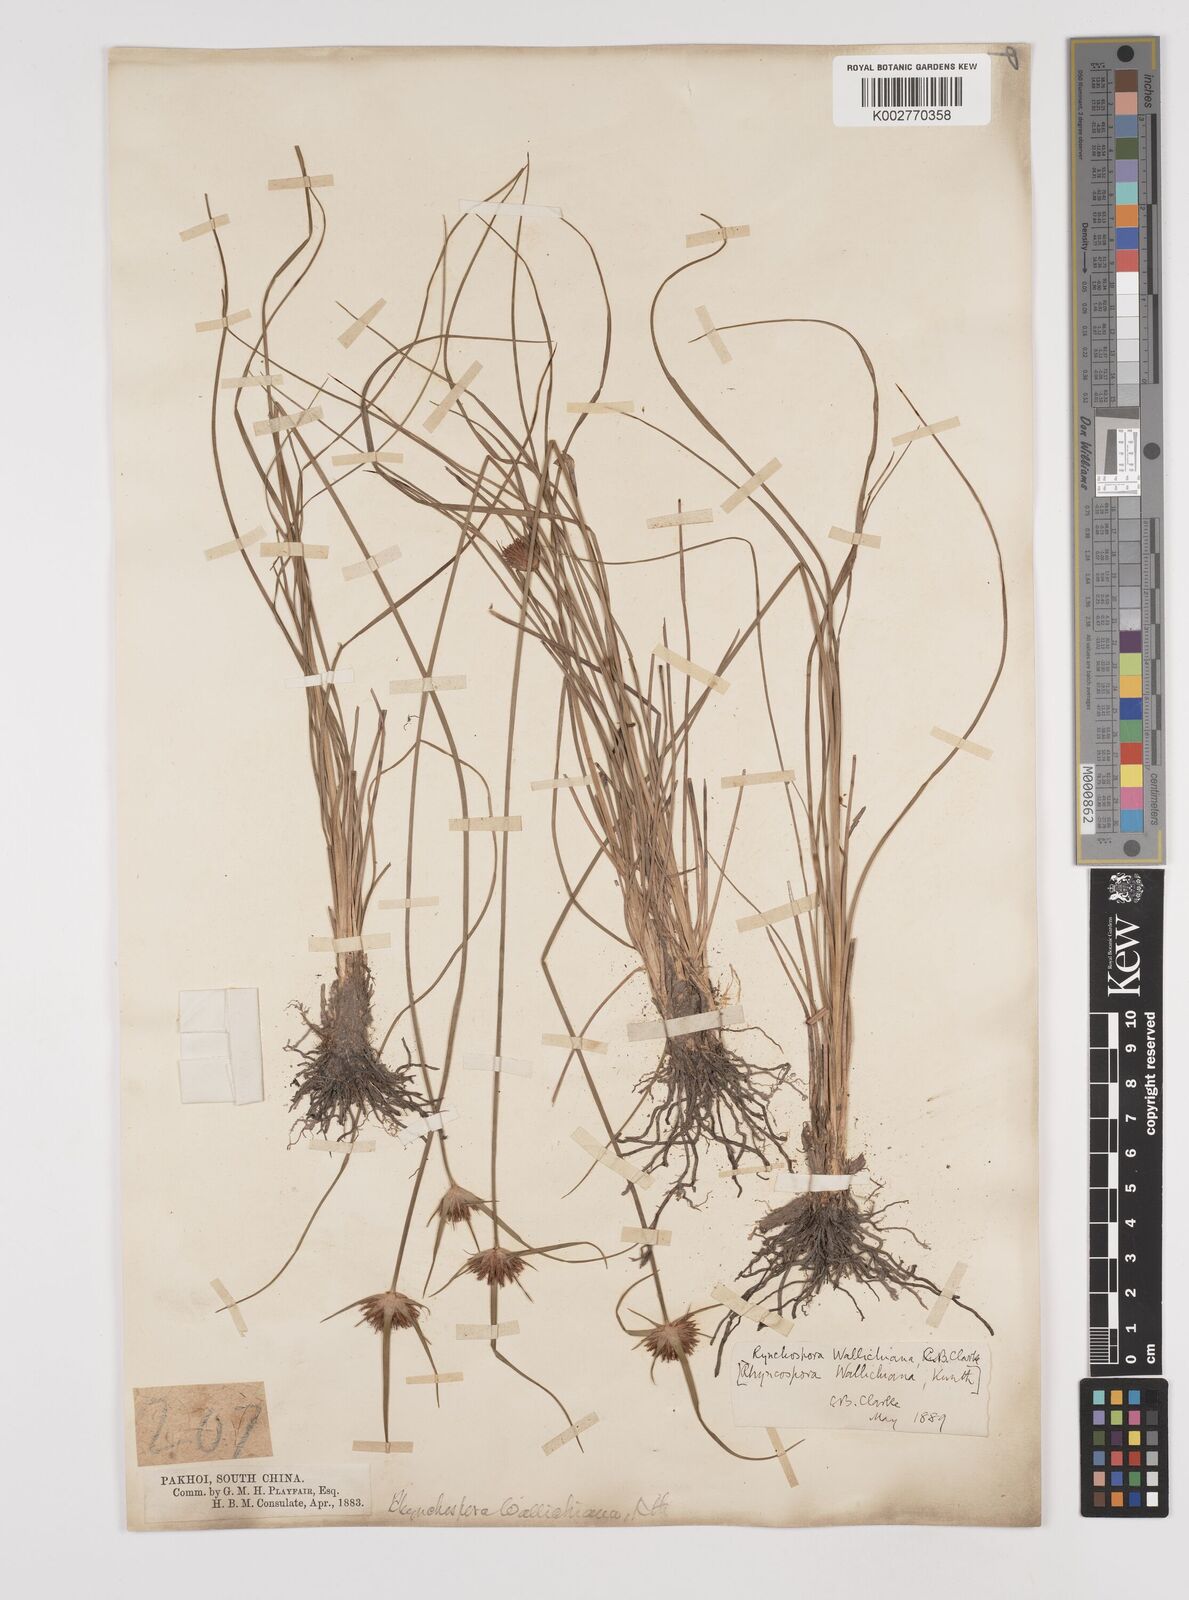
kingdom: Plantae
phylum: Tracheophyta
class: Liliopsida
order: Poales
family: Cyperaceae
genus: Rhynchospora
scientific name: Rhynchospora rubra
